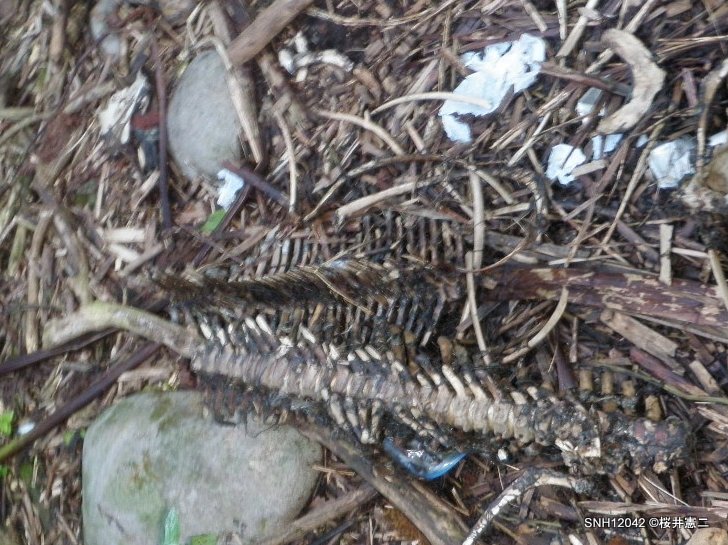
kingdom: Animalia
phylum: Chordata
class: Mammalia
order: Cetacea
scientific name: Cetacea
